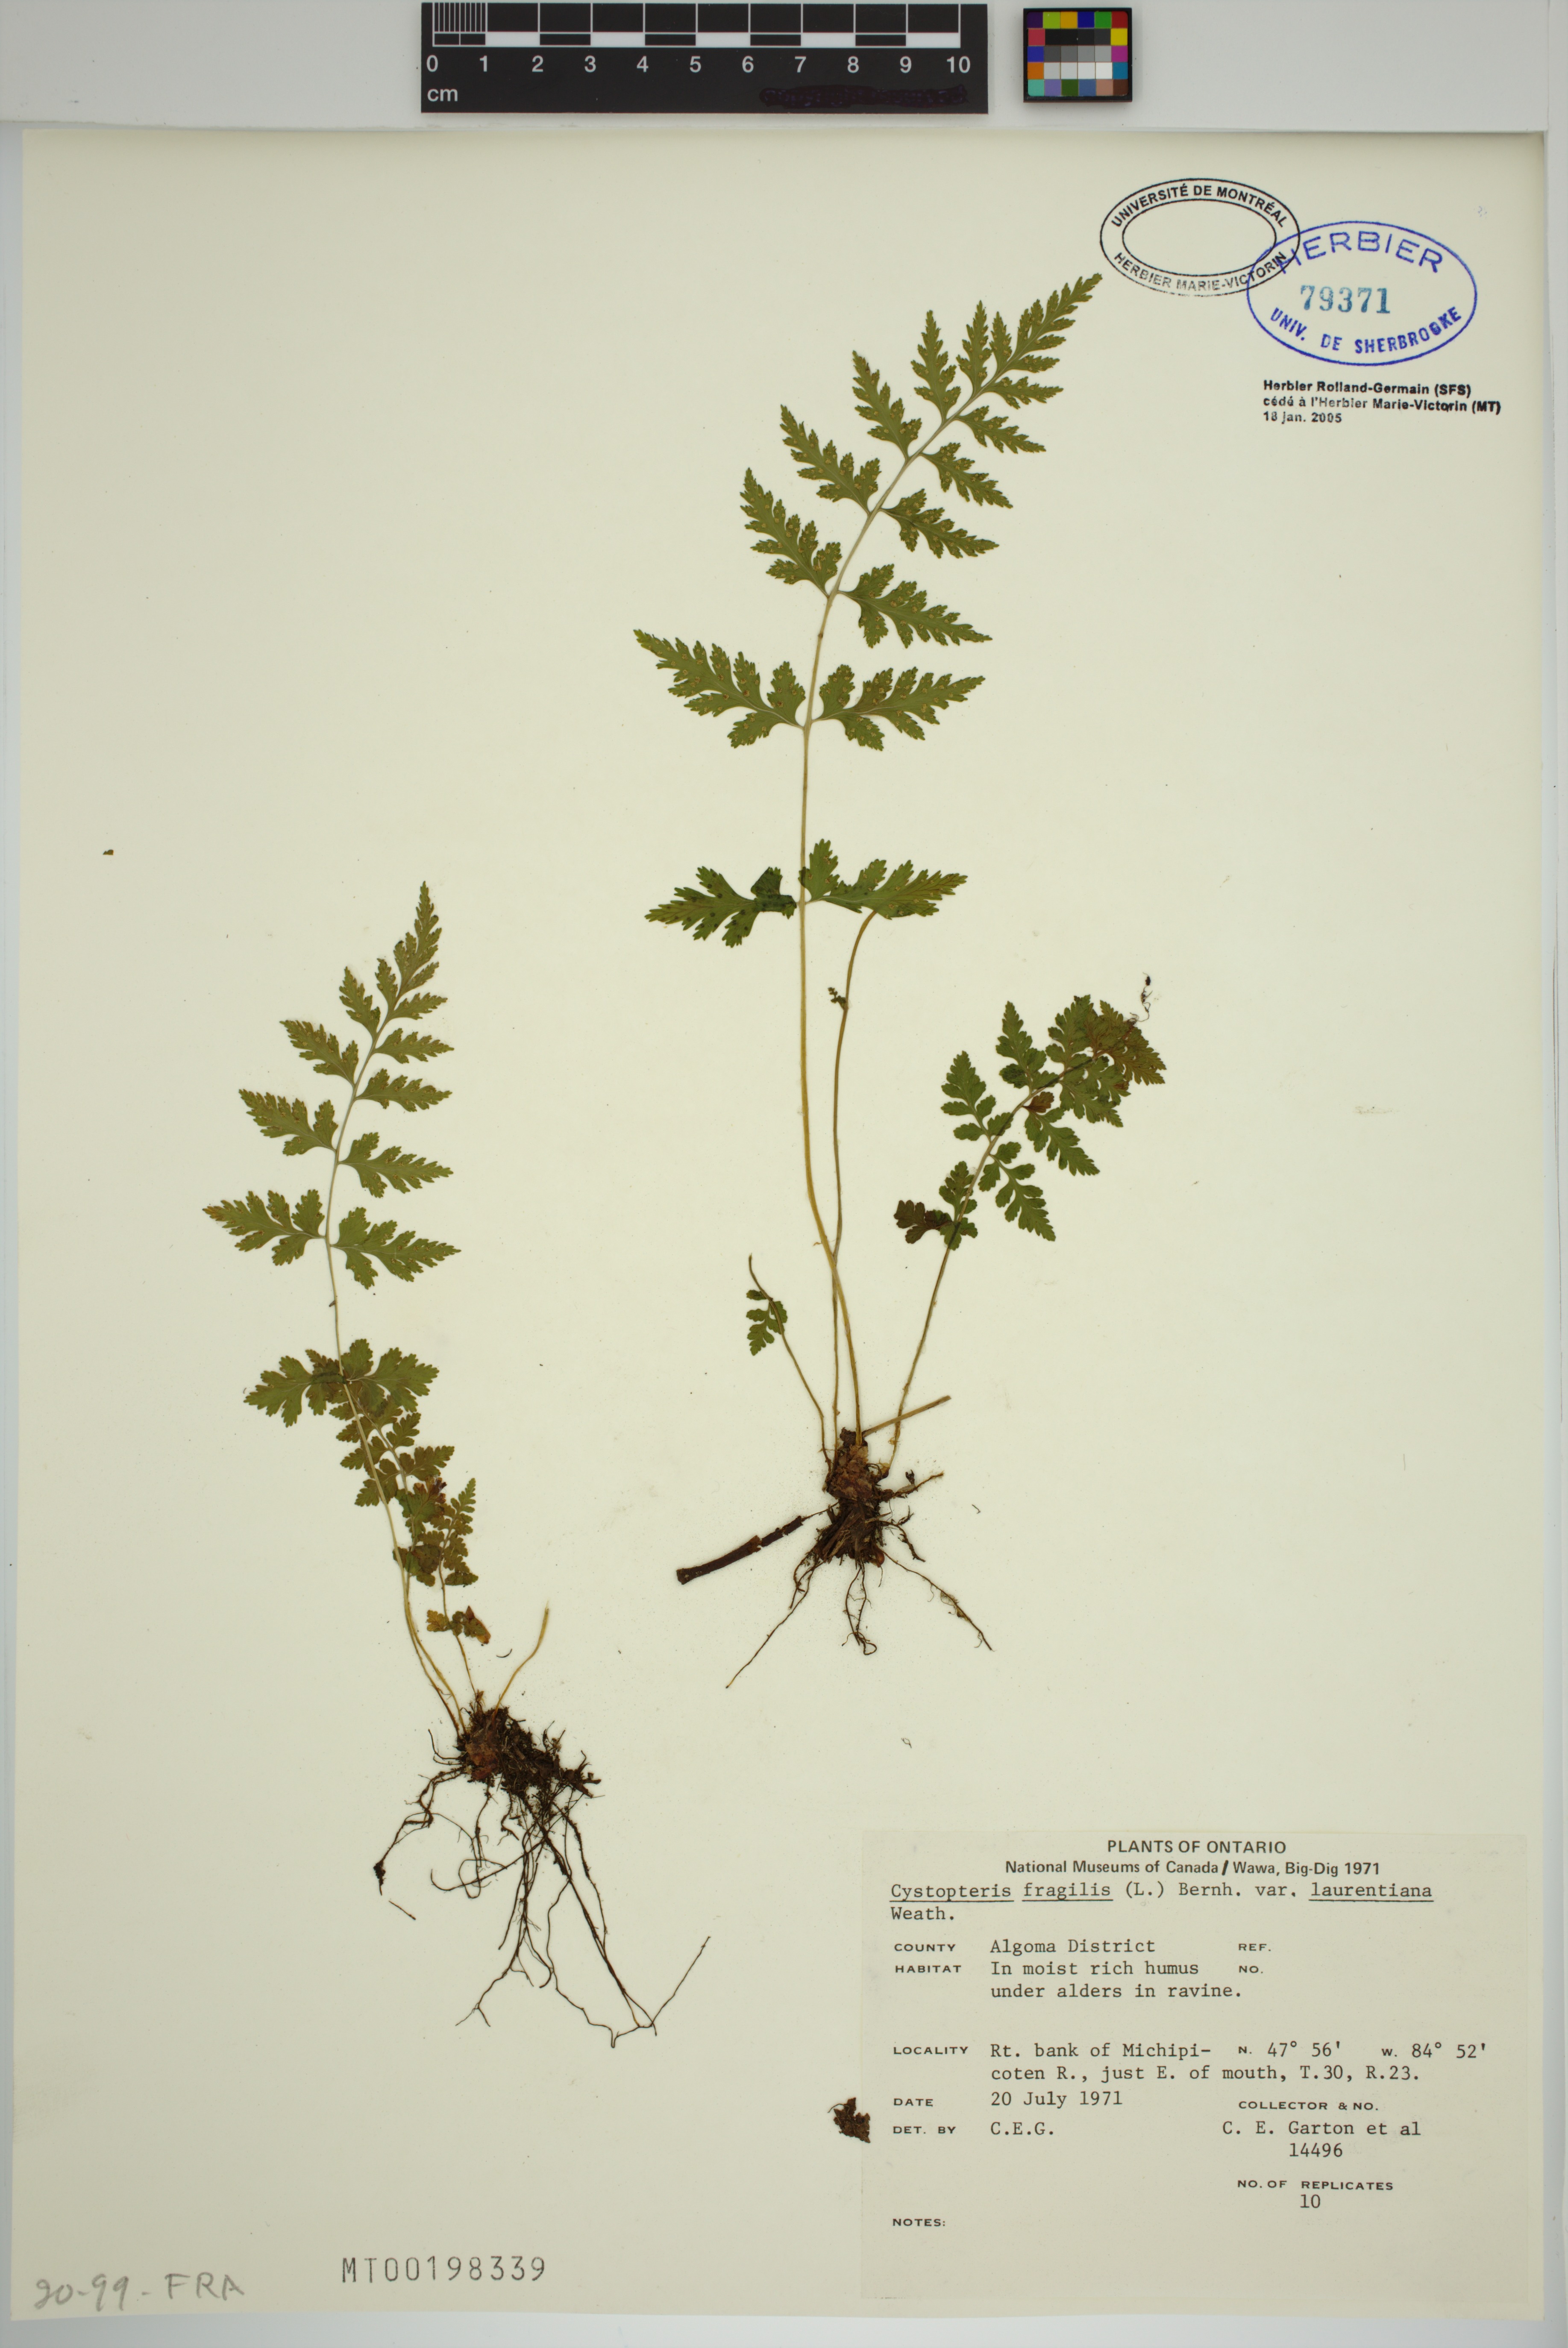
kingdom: Plantae
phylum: Tracheophyta
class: Polypodiopsida
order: Polypodiales
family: Cystopteridaceae
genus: Cystopteris
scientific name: Cystopteris laurentiana
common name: Blasdell's laurentian bladder fern
